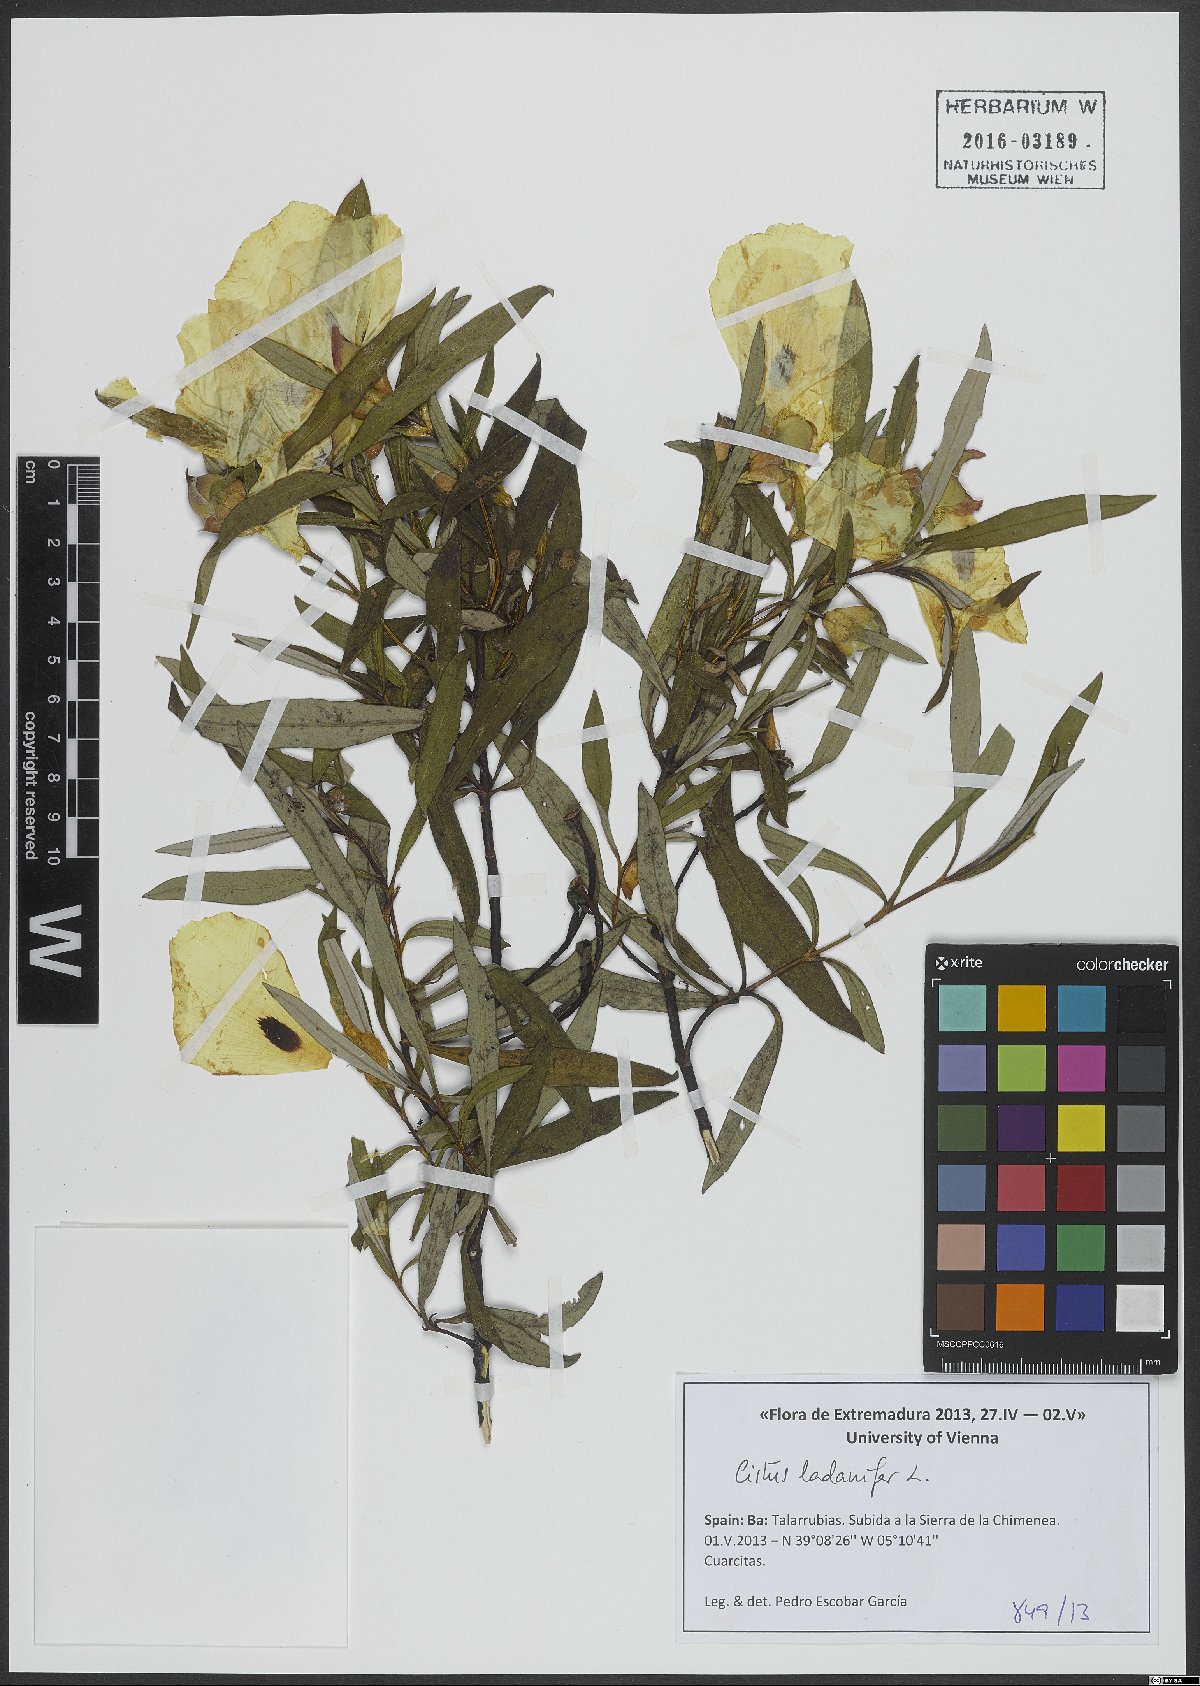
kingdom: Plantae
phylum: Tracheophyta
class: Magnoliopsida
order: Malvales
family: Cistaceae
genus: Cistus
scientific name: Cistus ladanifer
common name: Common gum cistus
